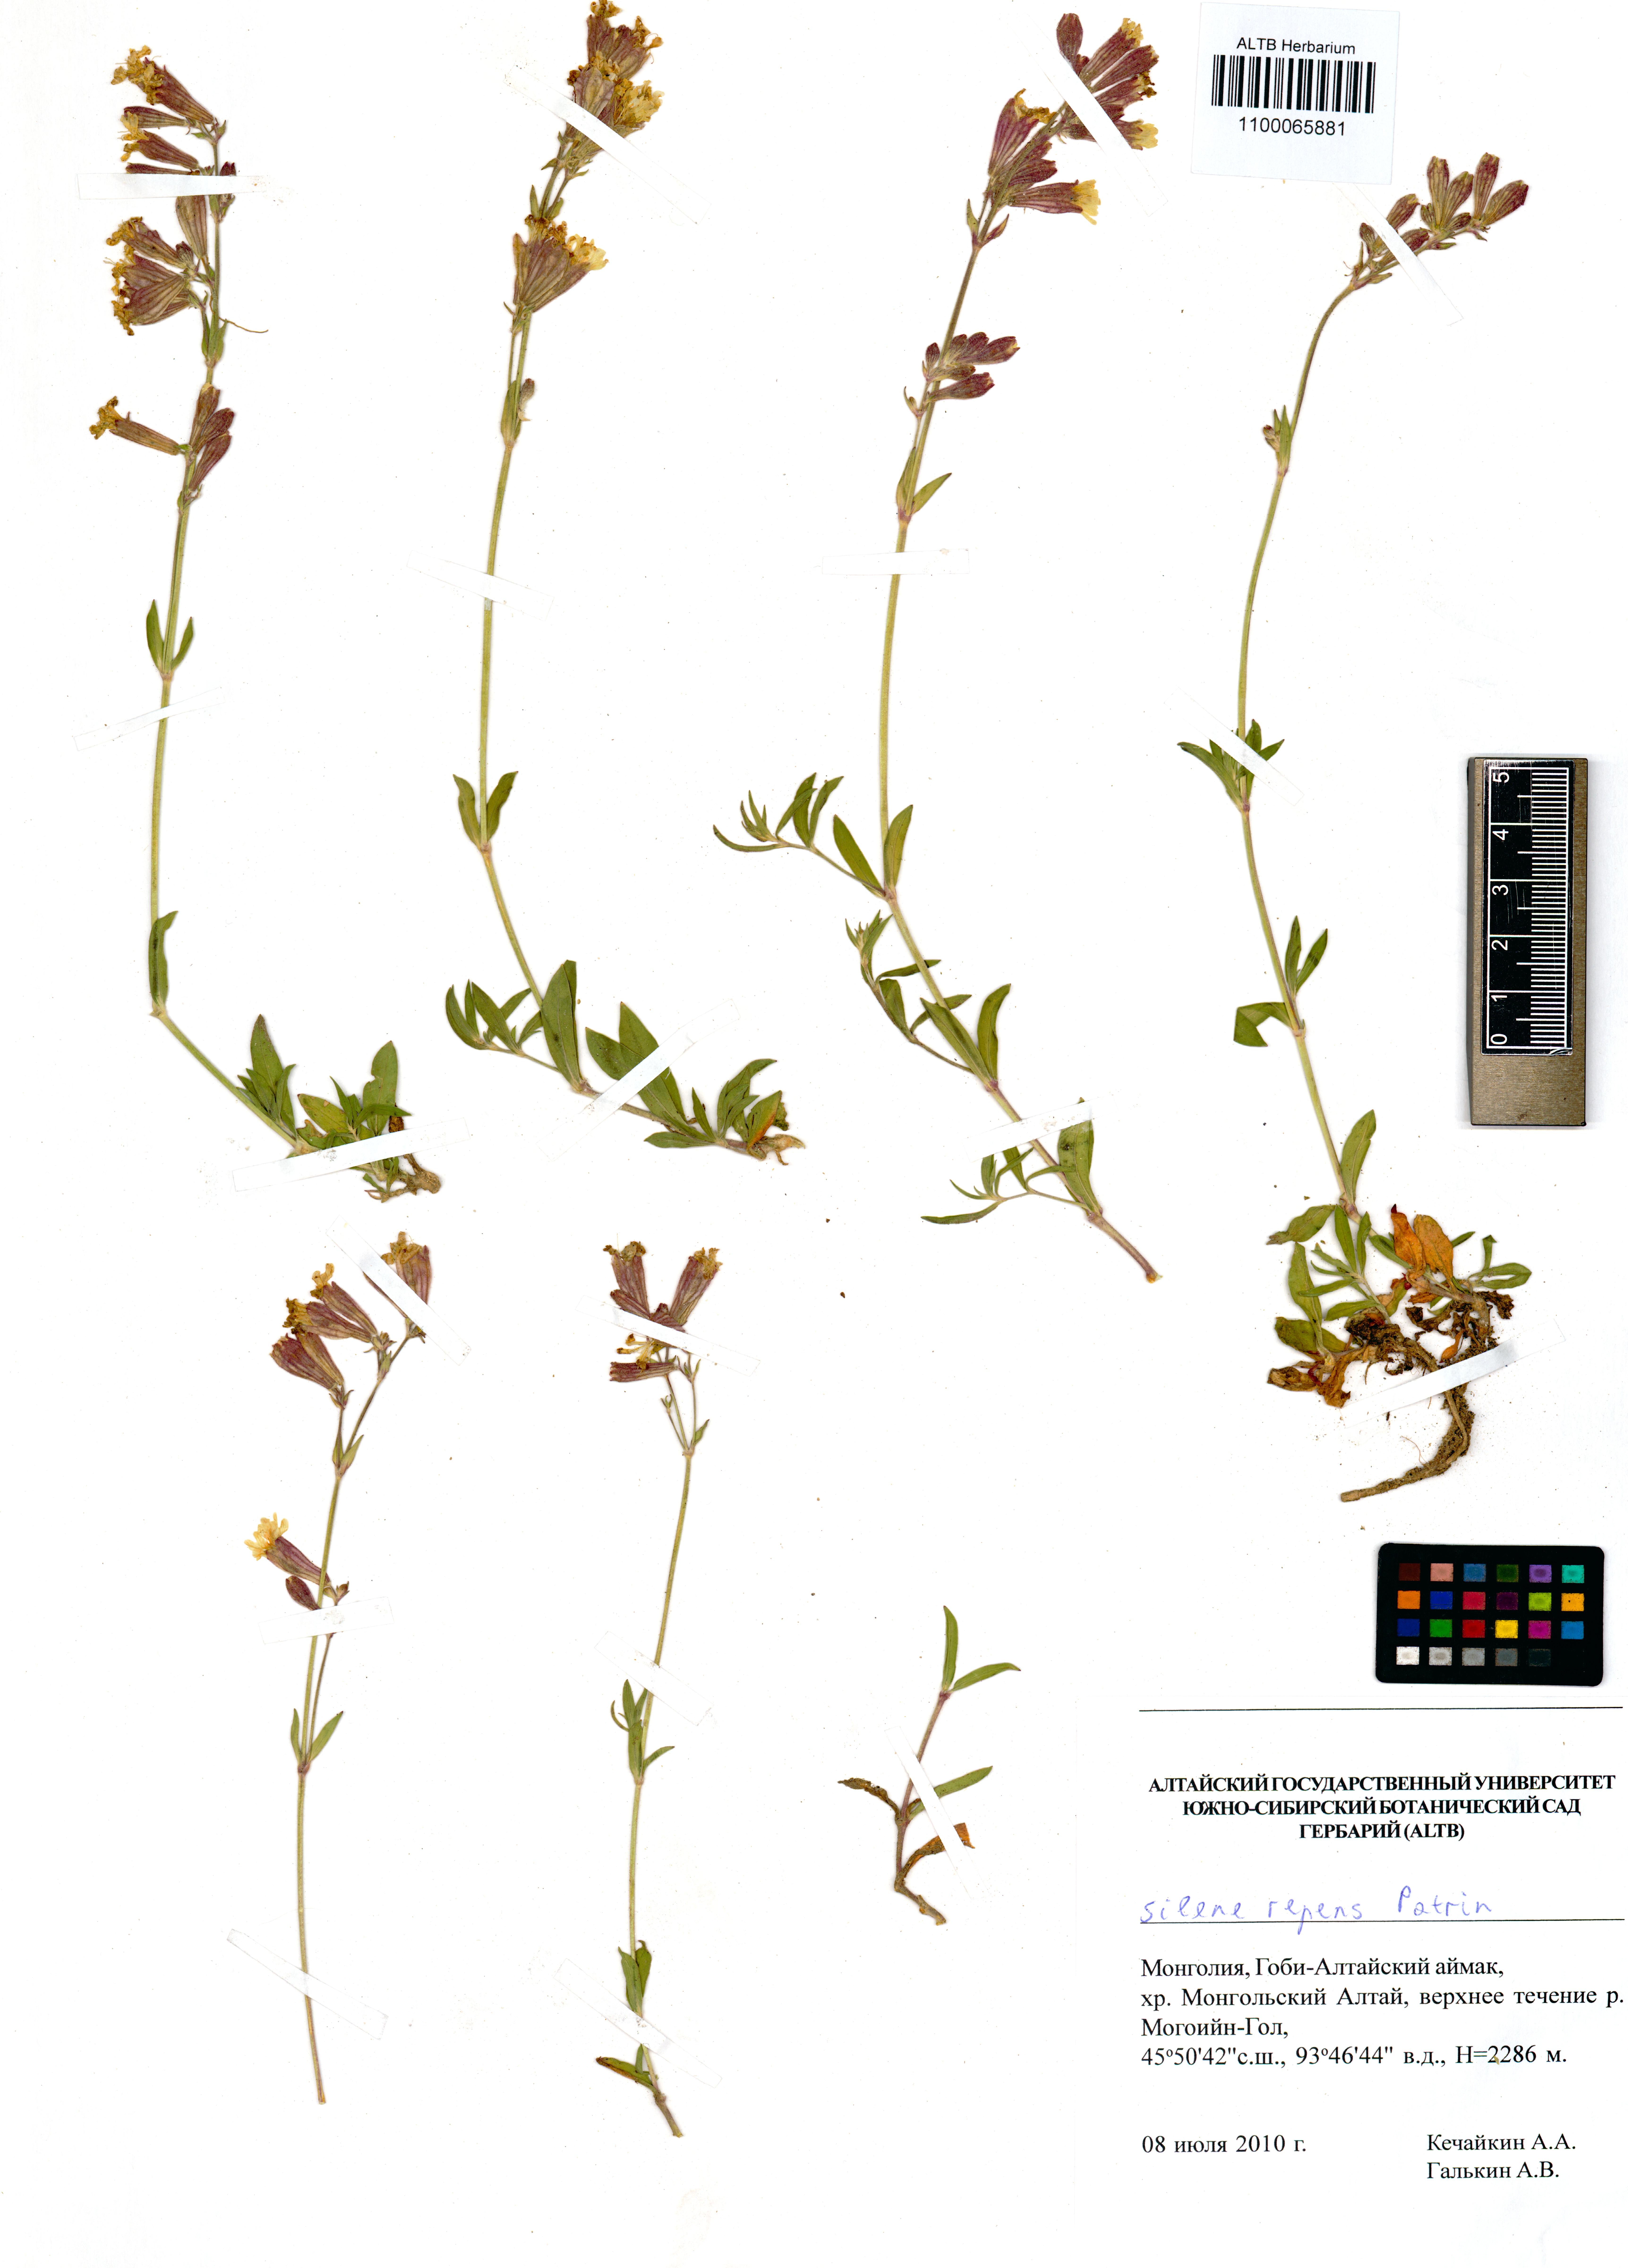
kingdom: Plantae
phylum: Tracheophyta
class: Magnoliopsida
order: Caryophyllales
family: Caryophyllaceae
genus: Silene
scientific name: Silene repens
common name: Pink campion
